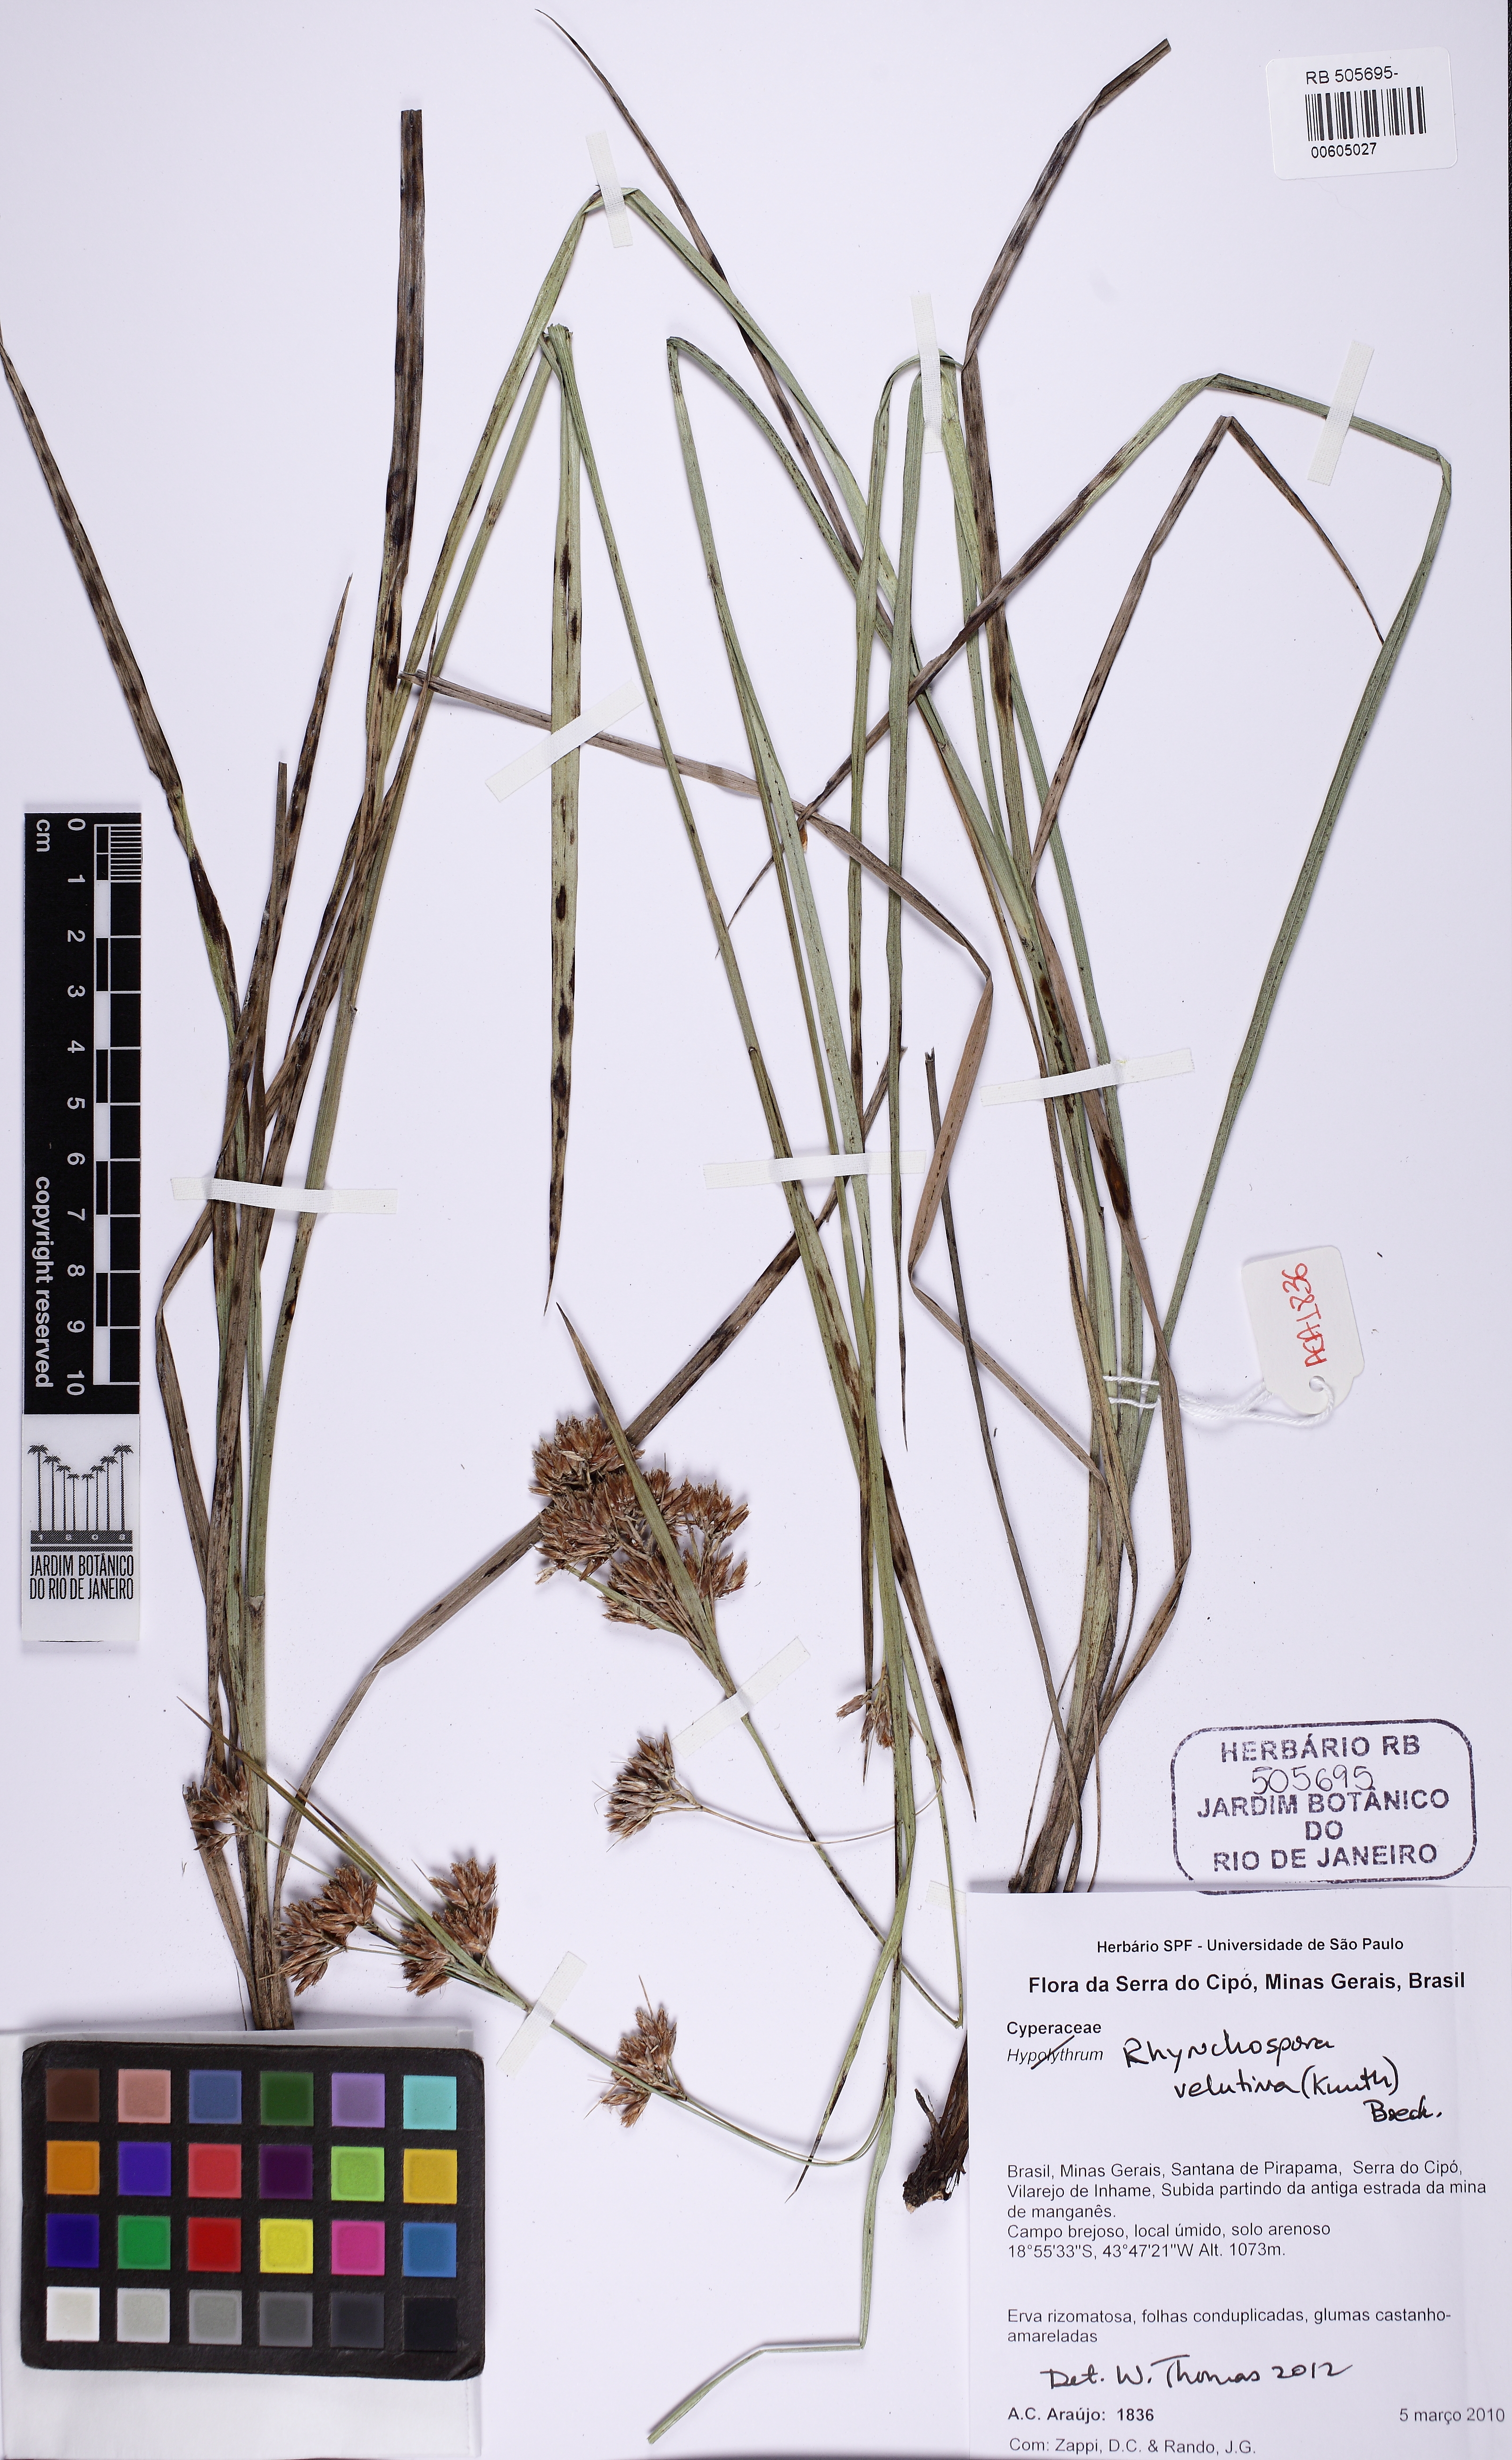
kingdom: Plantae
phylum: Tracheophyta
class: Liliopsida
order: Poales
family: Cyperaceae
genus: Rhynchospora
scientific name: Rhynchospora velutina
